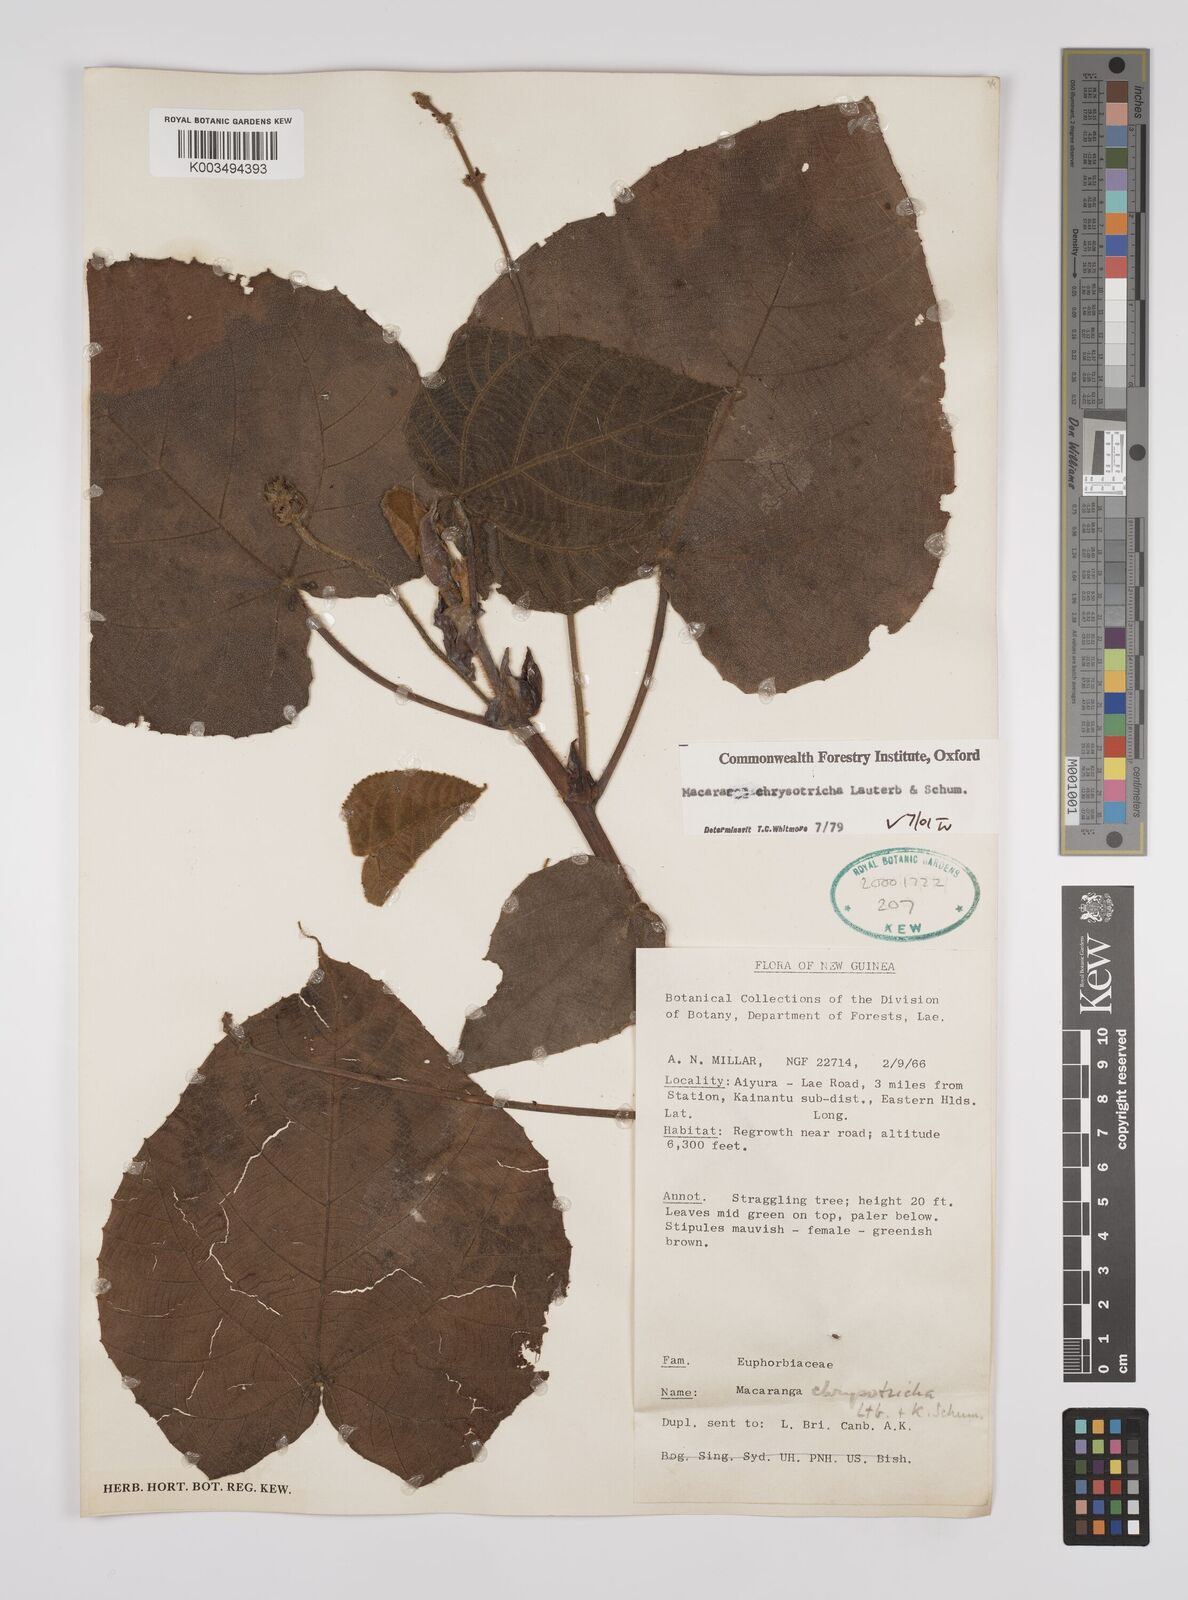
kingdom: Plantae
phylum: Tracheophyta
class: Magnoliopsida
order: Malpighiales
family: Euphorbiaceae
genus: Macaranga
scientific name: Macaranga chrysotricha
